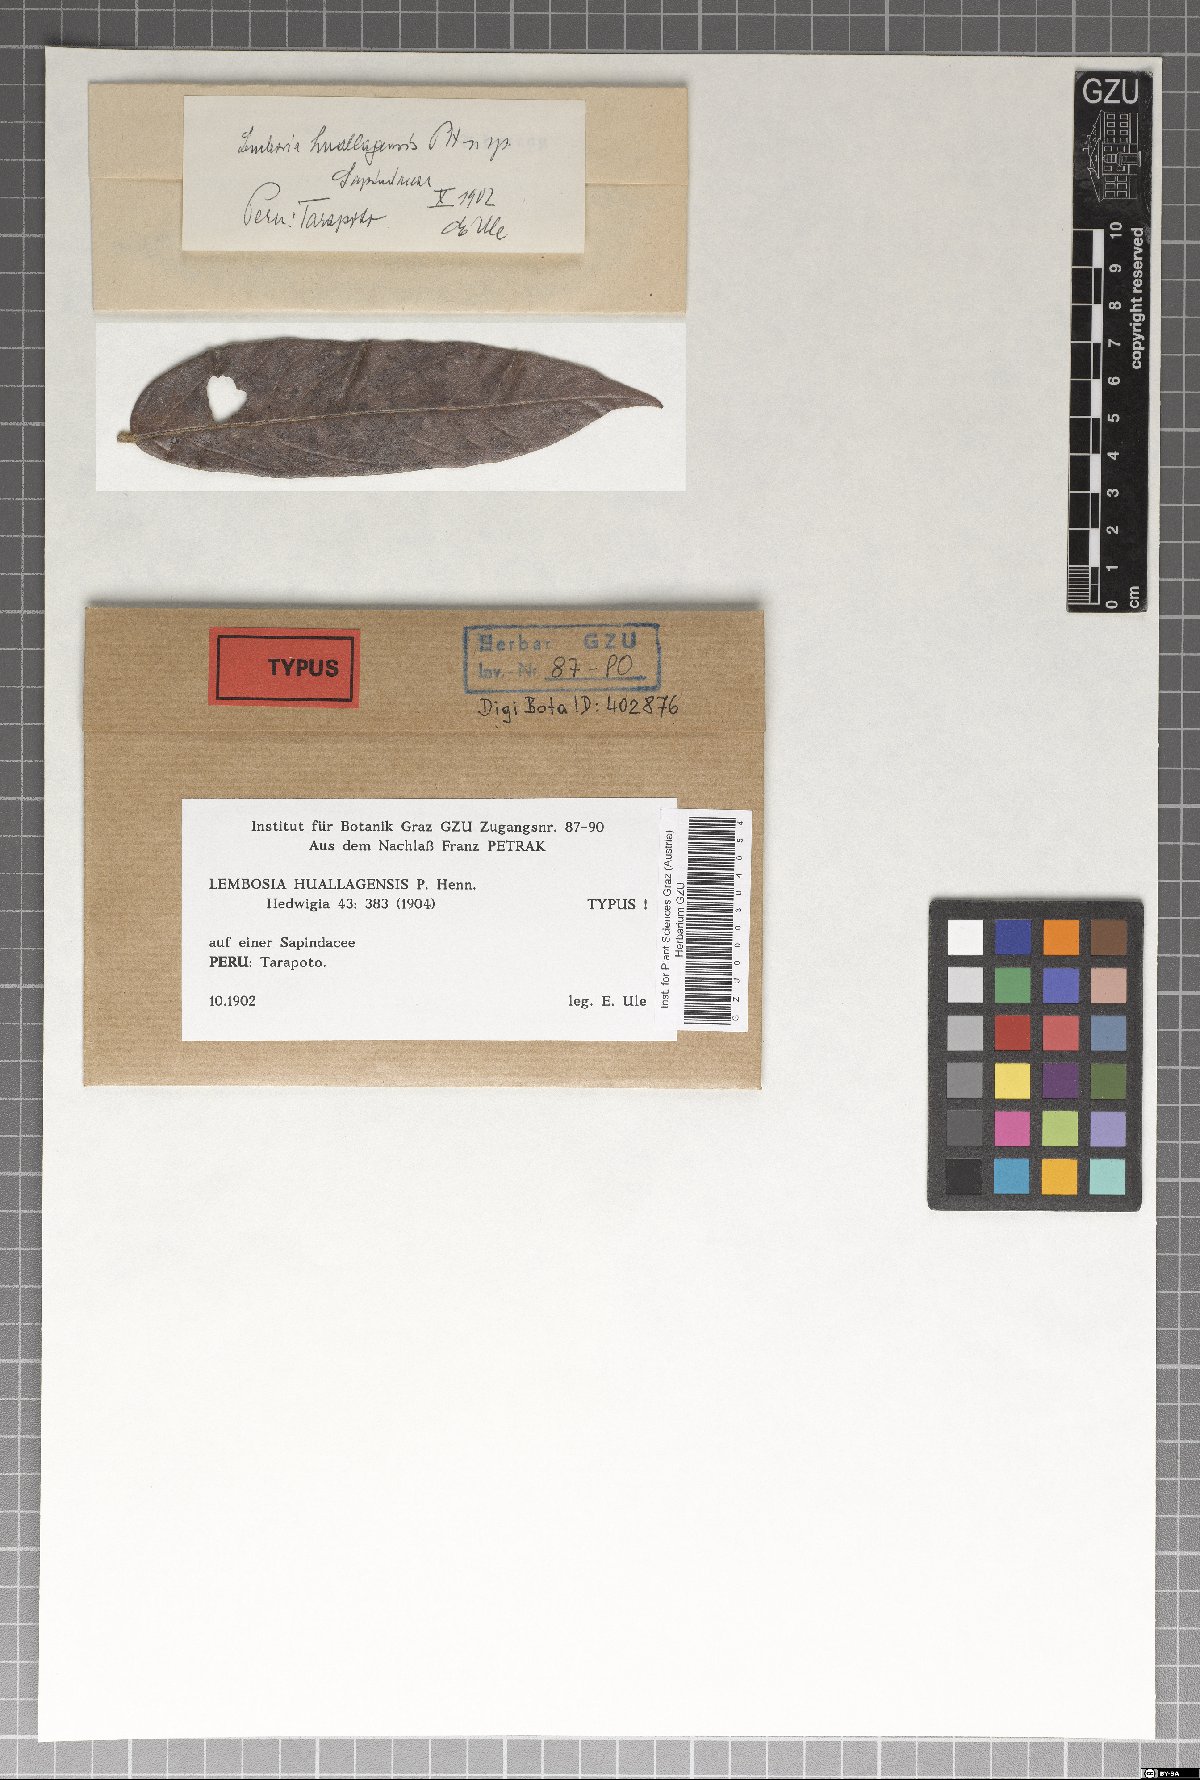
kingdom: Fungi
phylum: Ascomycota
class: Dothideomycetes
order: Asterinales
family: Asterinaceae
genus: Lembosia
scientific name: Lembosia huallagensis
